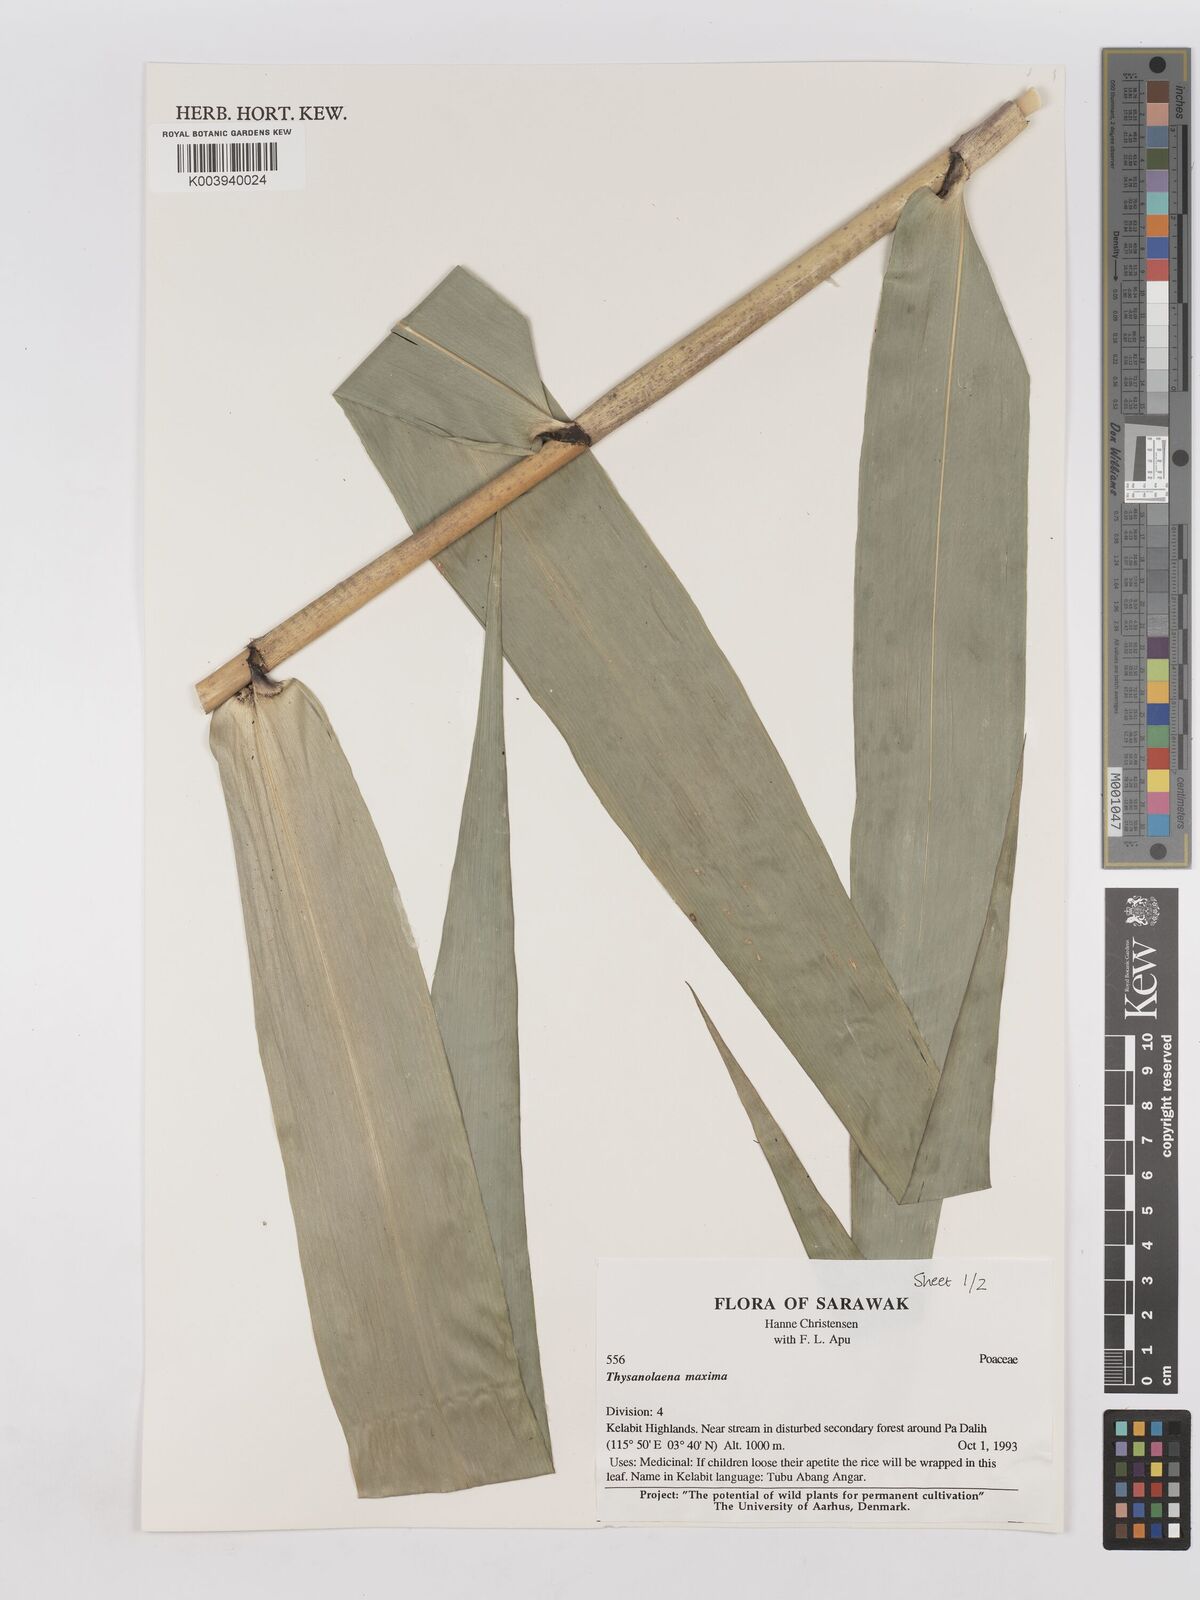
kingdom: Plantae
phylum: Tracheophyta
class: Liliopsida
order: Poales
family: Poaceae
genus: Thysanolaena
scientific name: Thysanolaena latifolia
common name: Tiger grass
